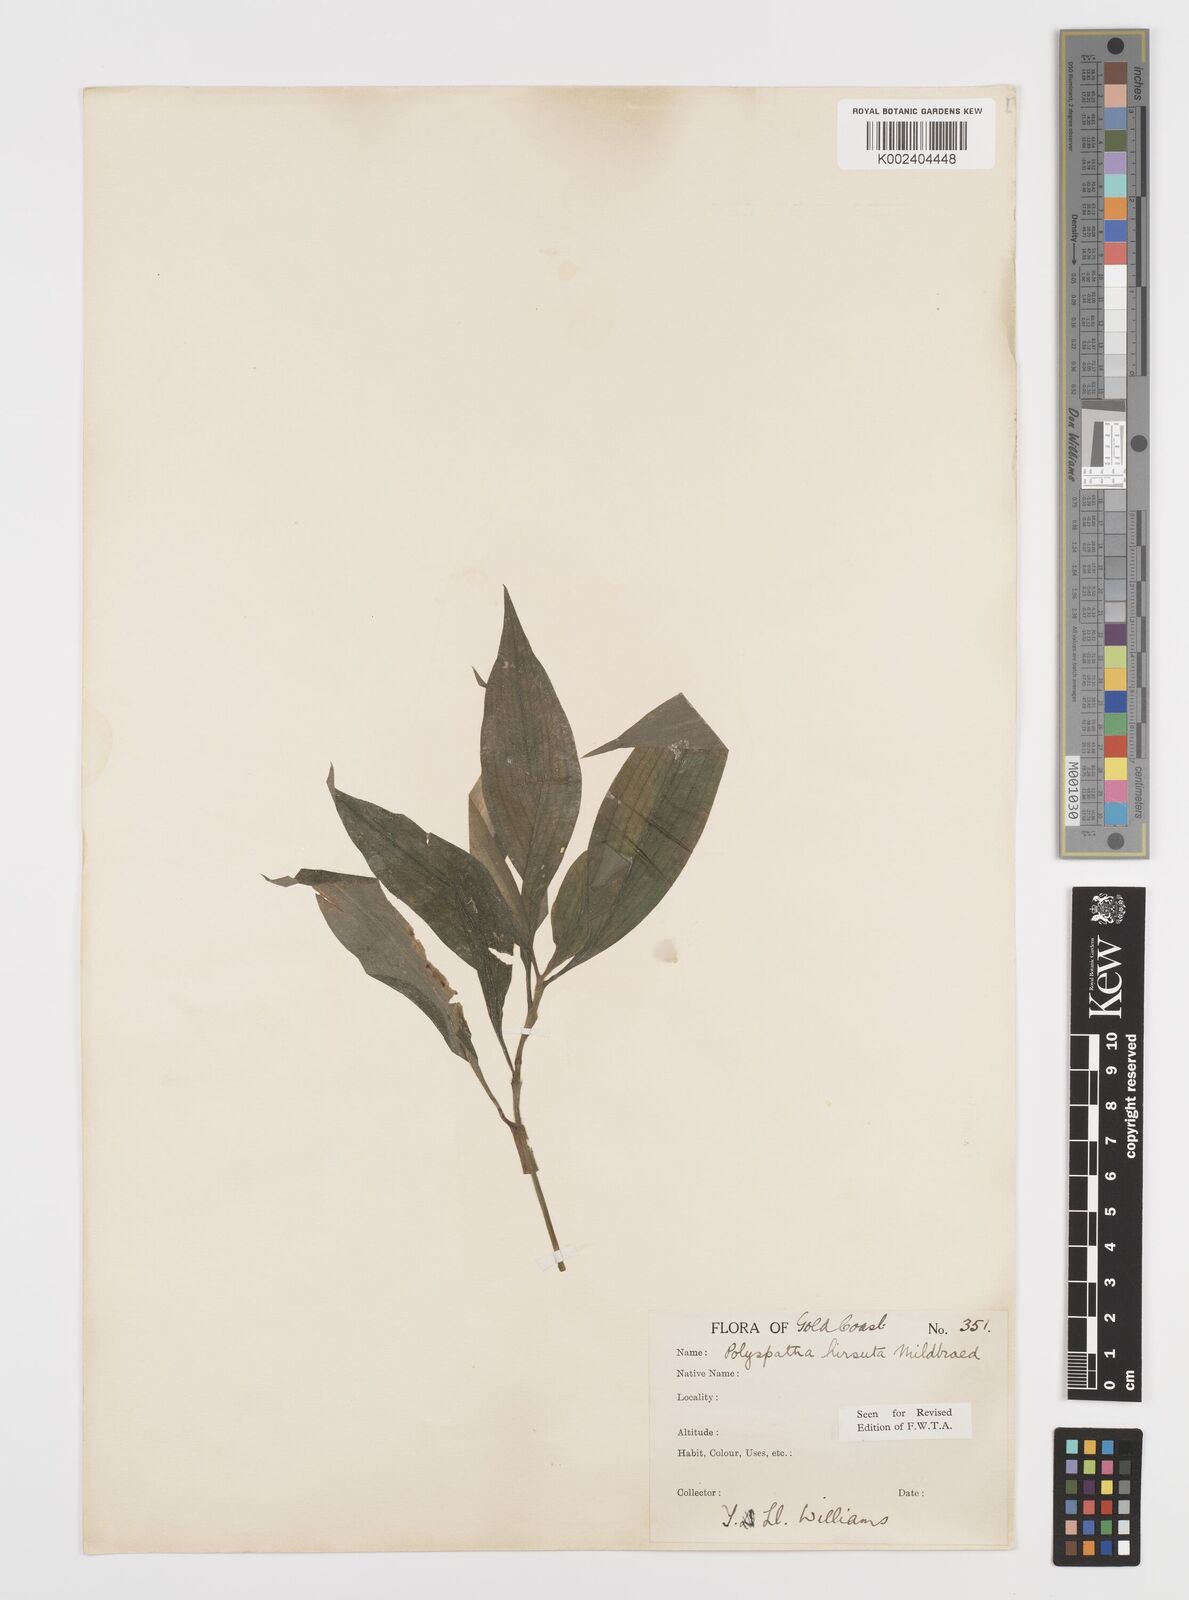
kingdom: Plantae
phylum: Tracheophyta
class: Liliopsida
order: Commelinales
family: Commelinaceae
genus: Polyspatha
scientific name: Polyspatha hirsuta
